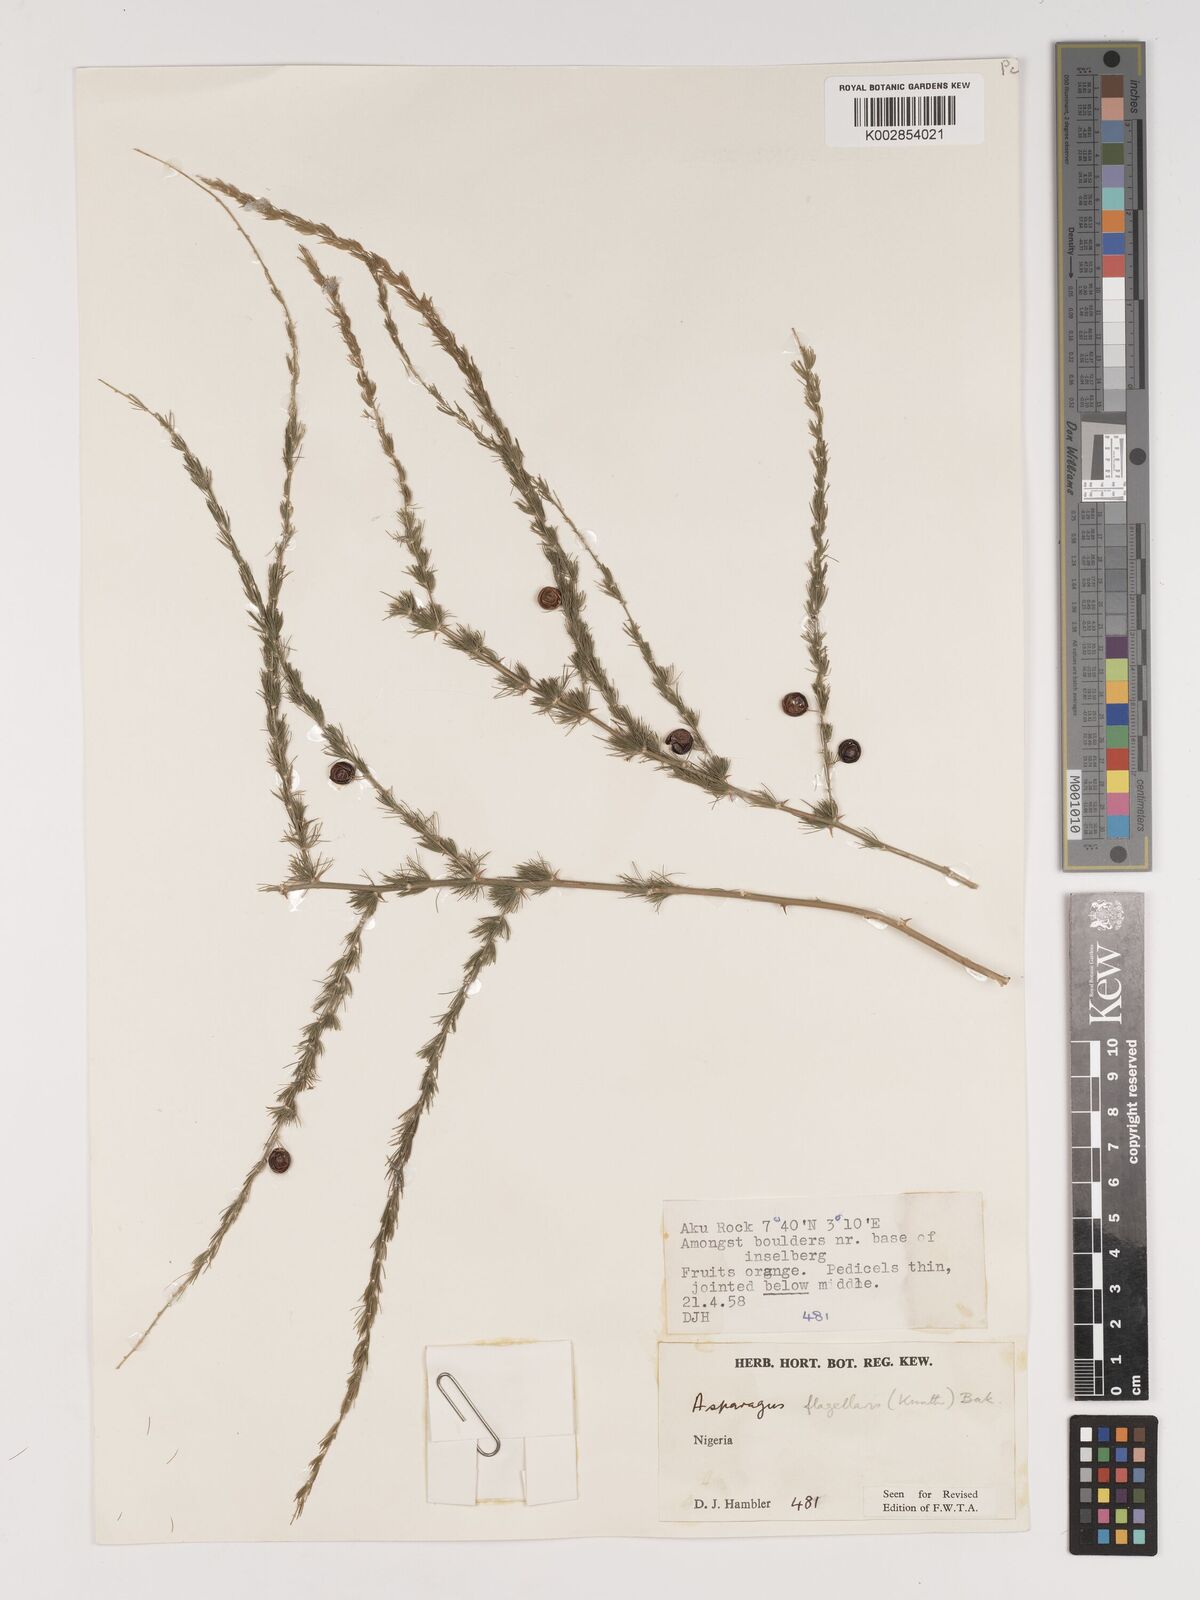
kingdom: Plantae
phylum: Tracheophyta
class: Liliopsida
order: Asparagales
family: Asparagaceae
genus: Asparagus
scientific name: Asparagus flagellaris
